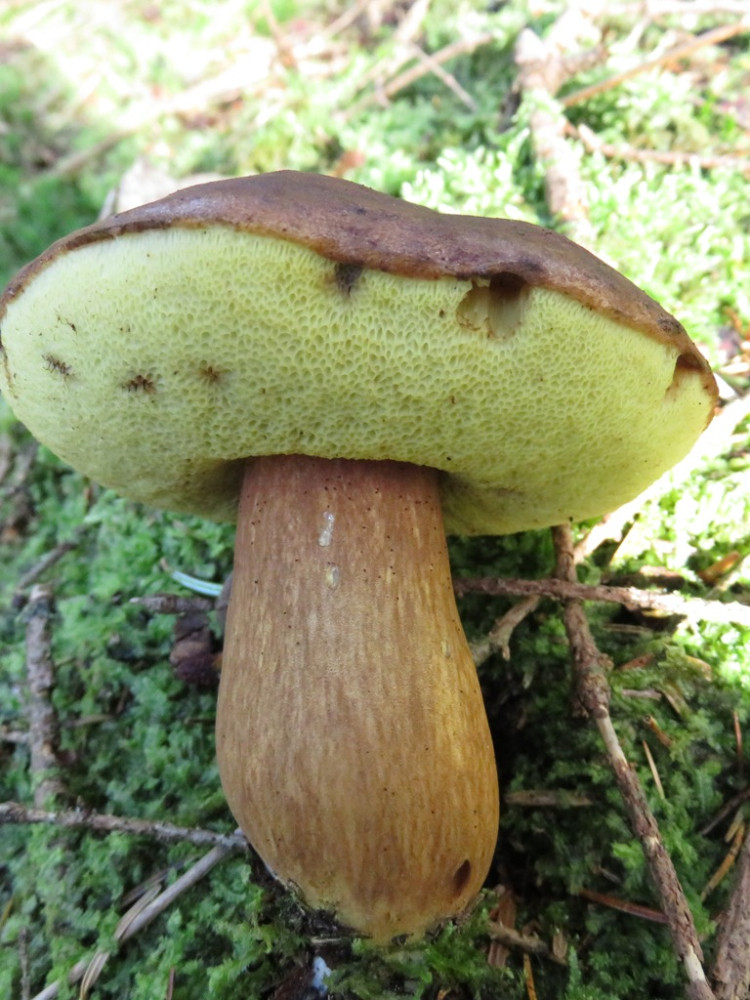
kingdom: Fungi
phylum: Basidiomycota
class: Agaricomycetes
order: Boletales
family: Boletaceae
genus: Imleria
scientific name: Imleria badia
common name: brunstokket rørhat
